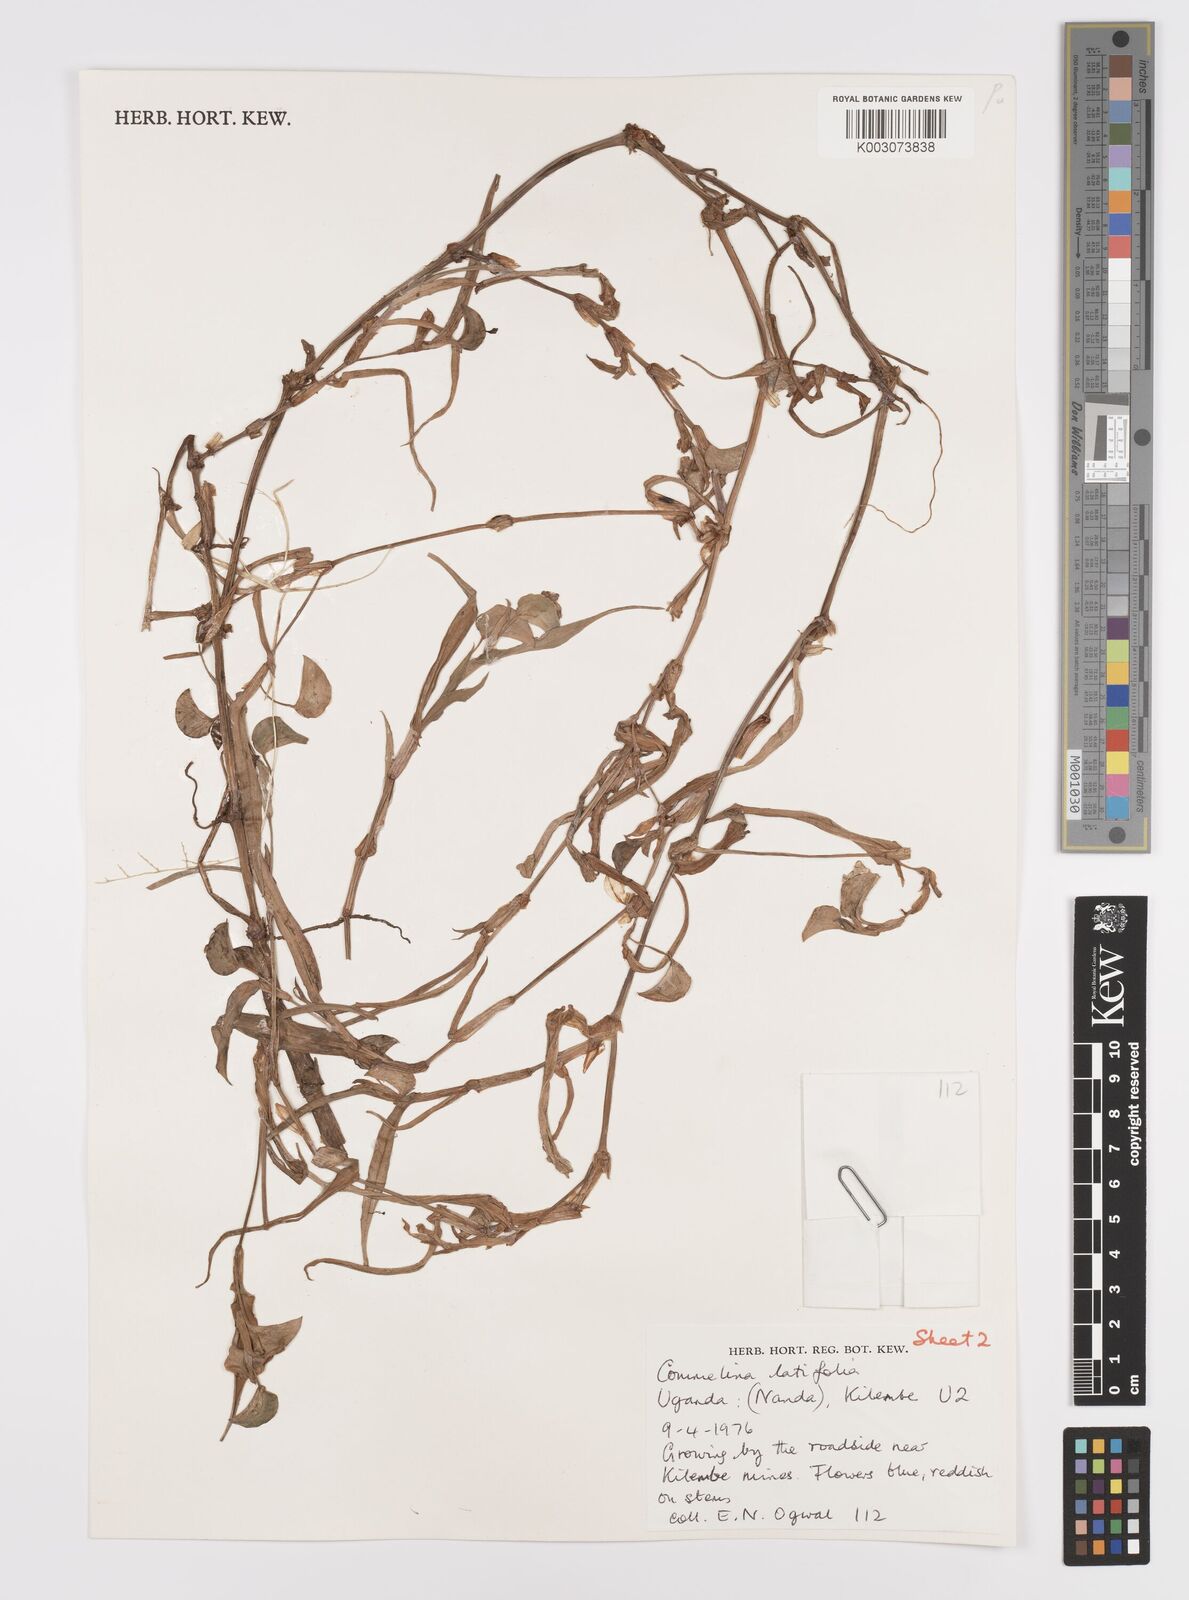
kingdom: Plantae
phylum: Tracheophyta
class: Liliopsida
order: Commelinales
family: Commelinaceae
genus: Commelina
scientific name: Commelina latifolia
